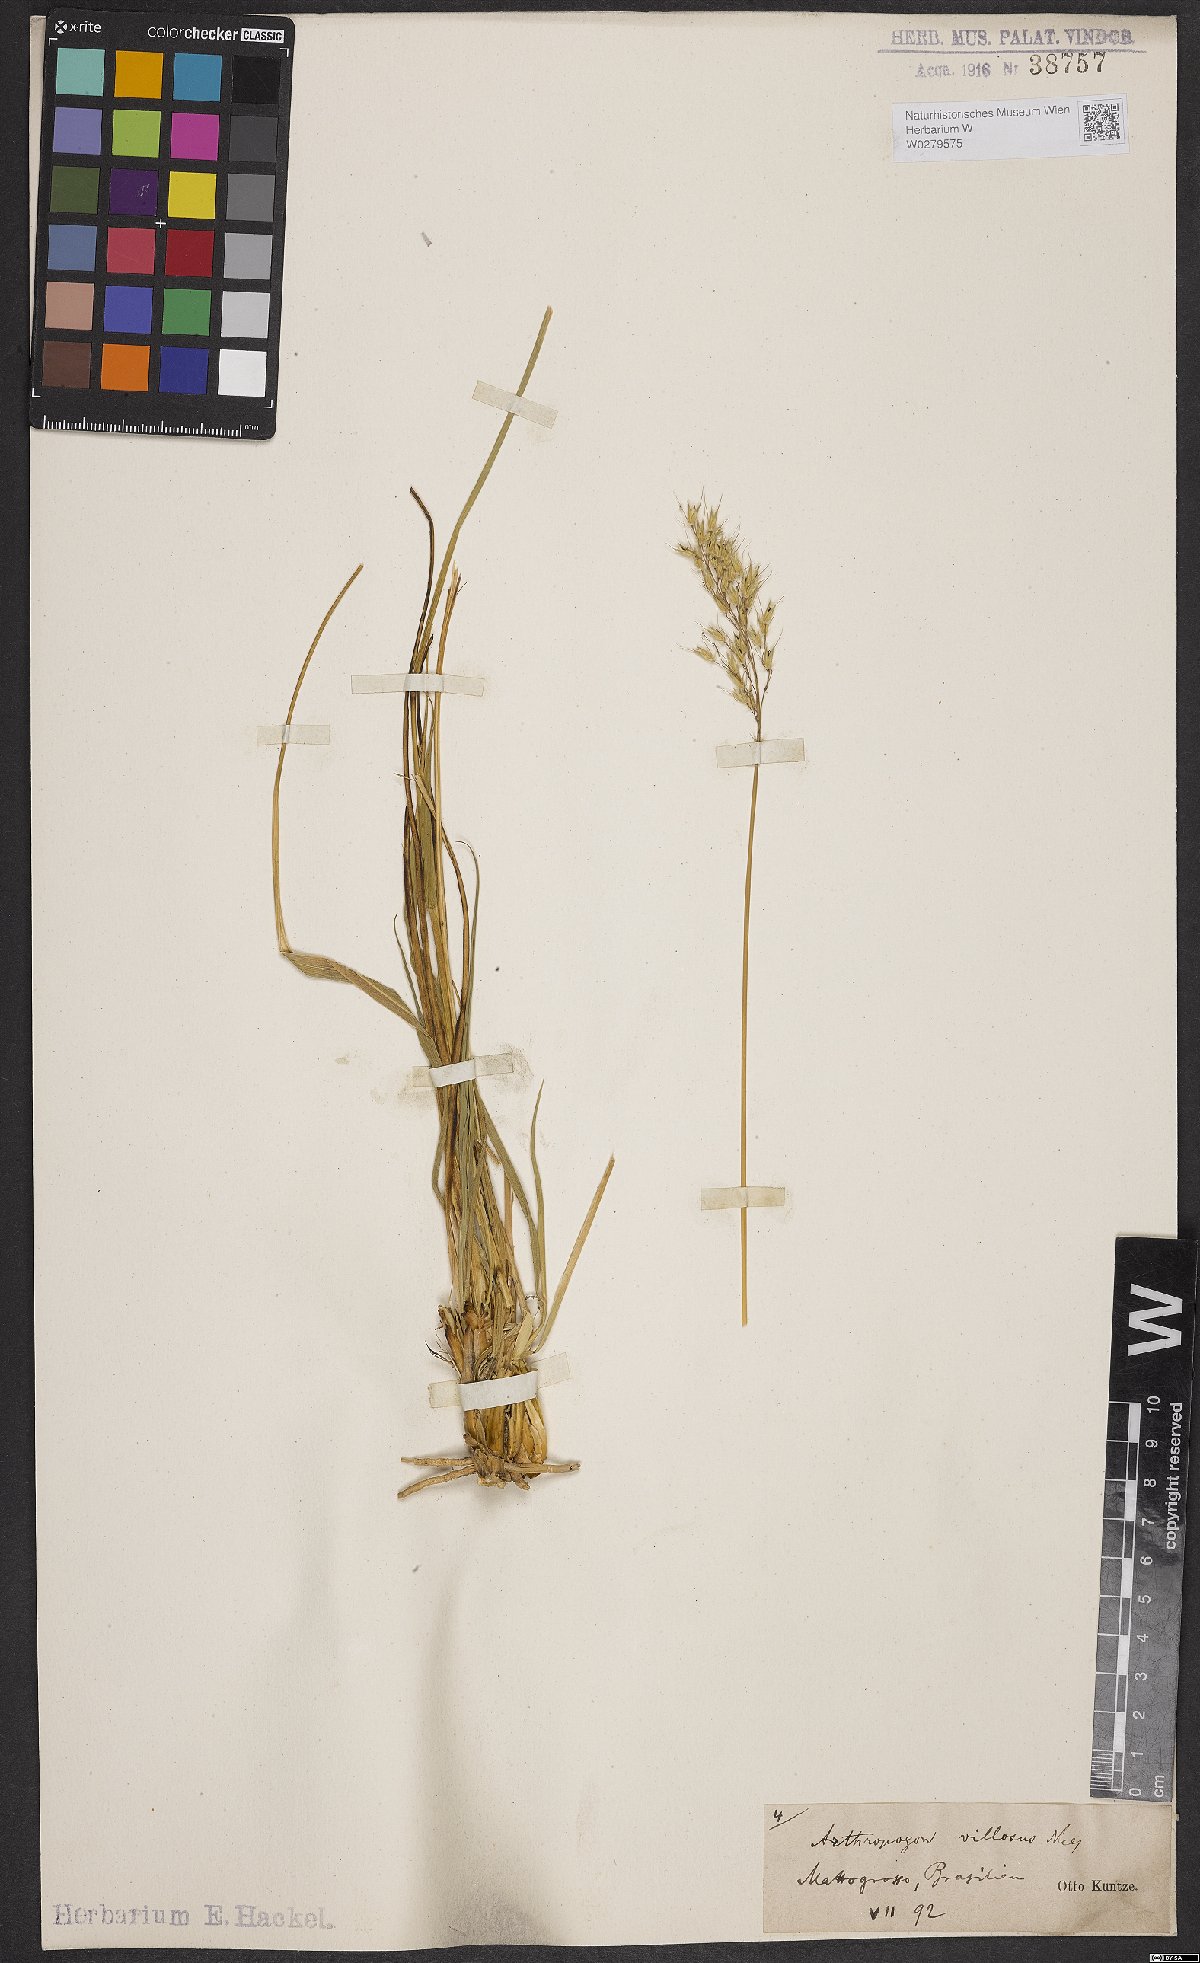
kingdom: Plantae
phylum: Tracheophyta
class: Liliopsida
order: Poales
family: Poaceae
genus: Arthropogon
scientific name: Arthropogon villosus
